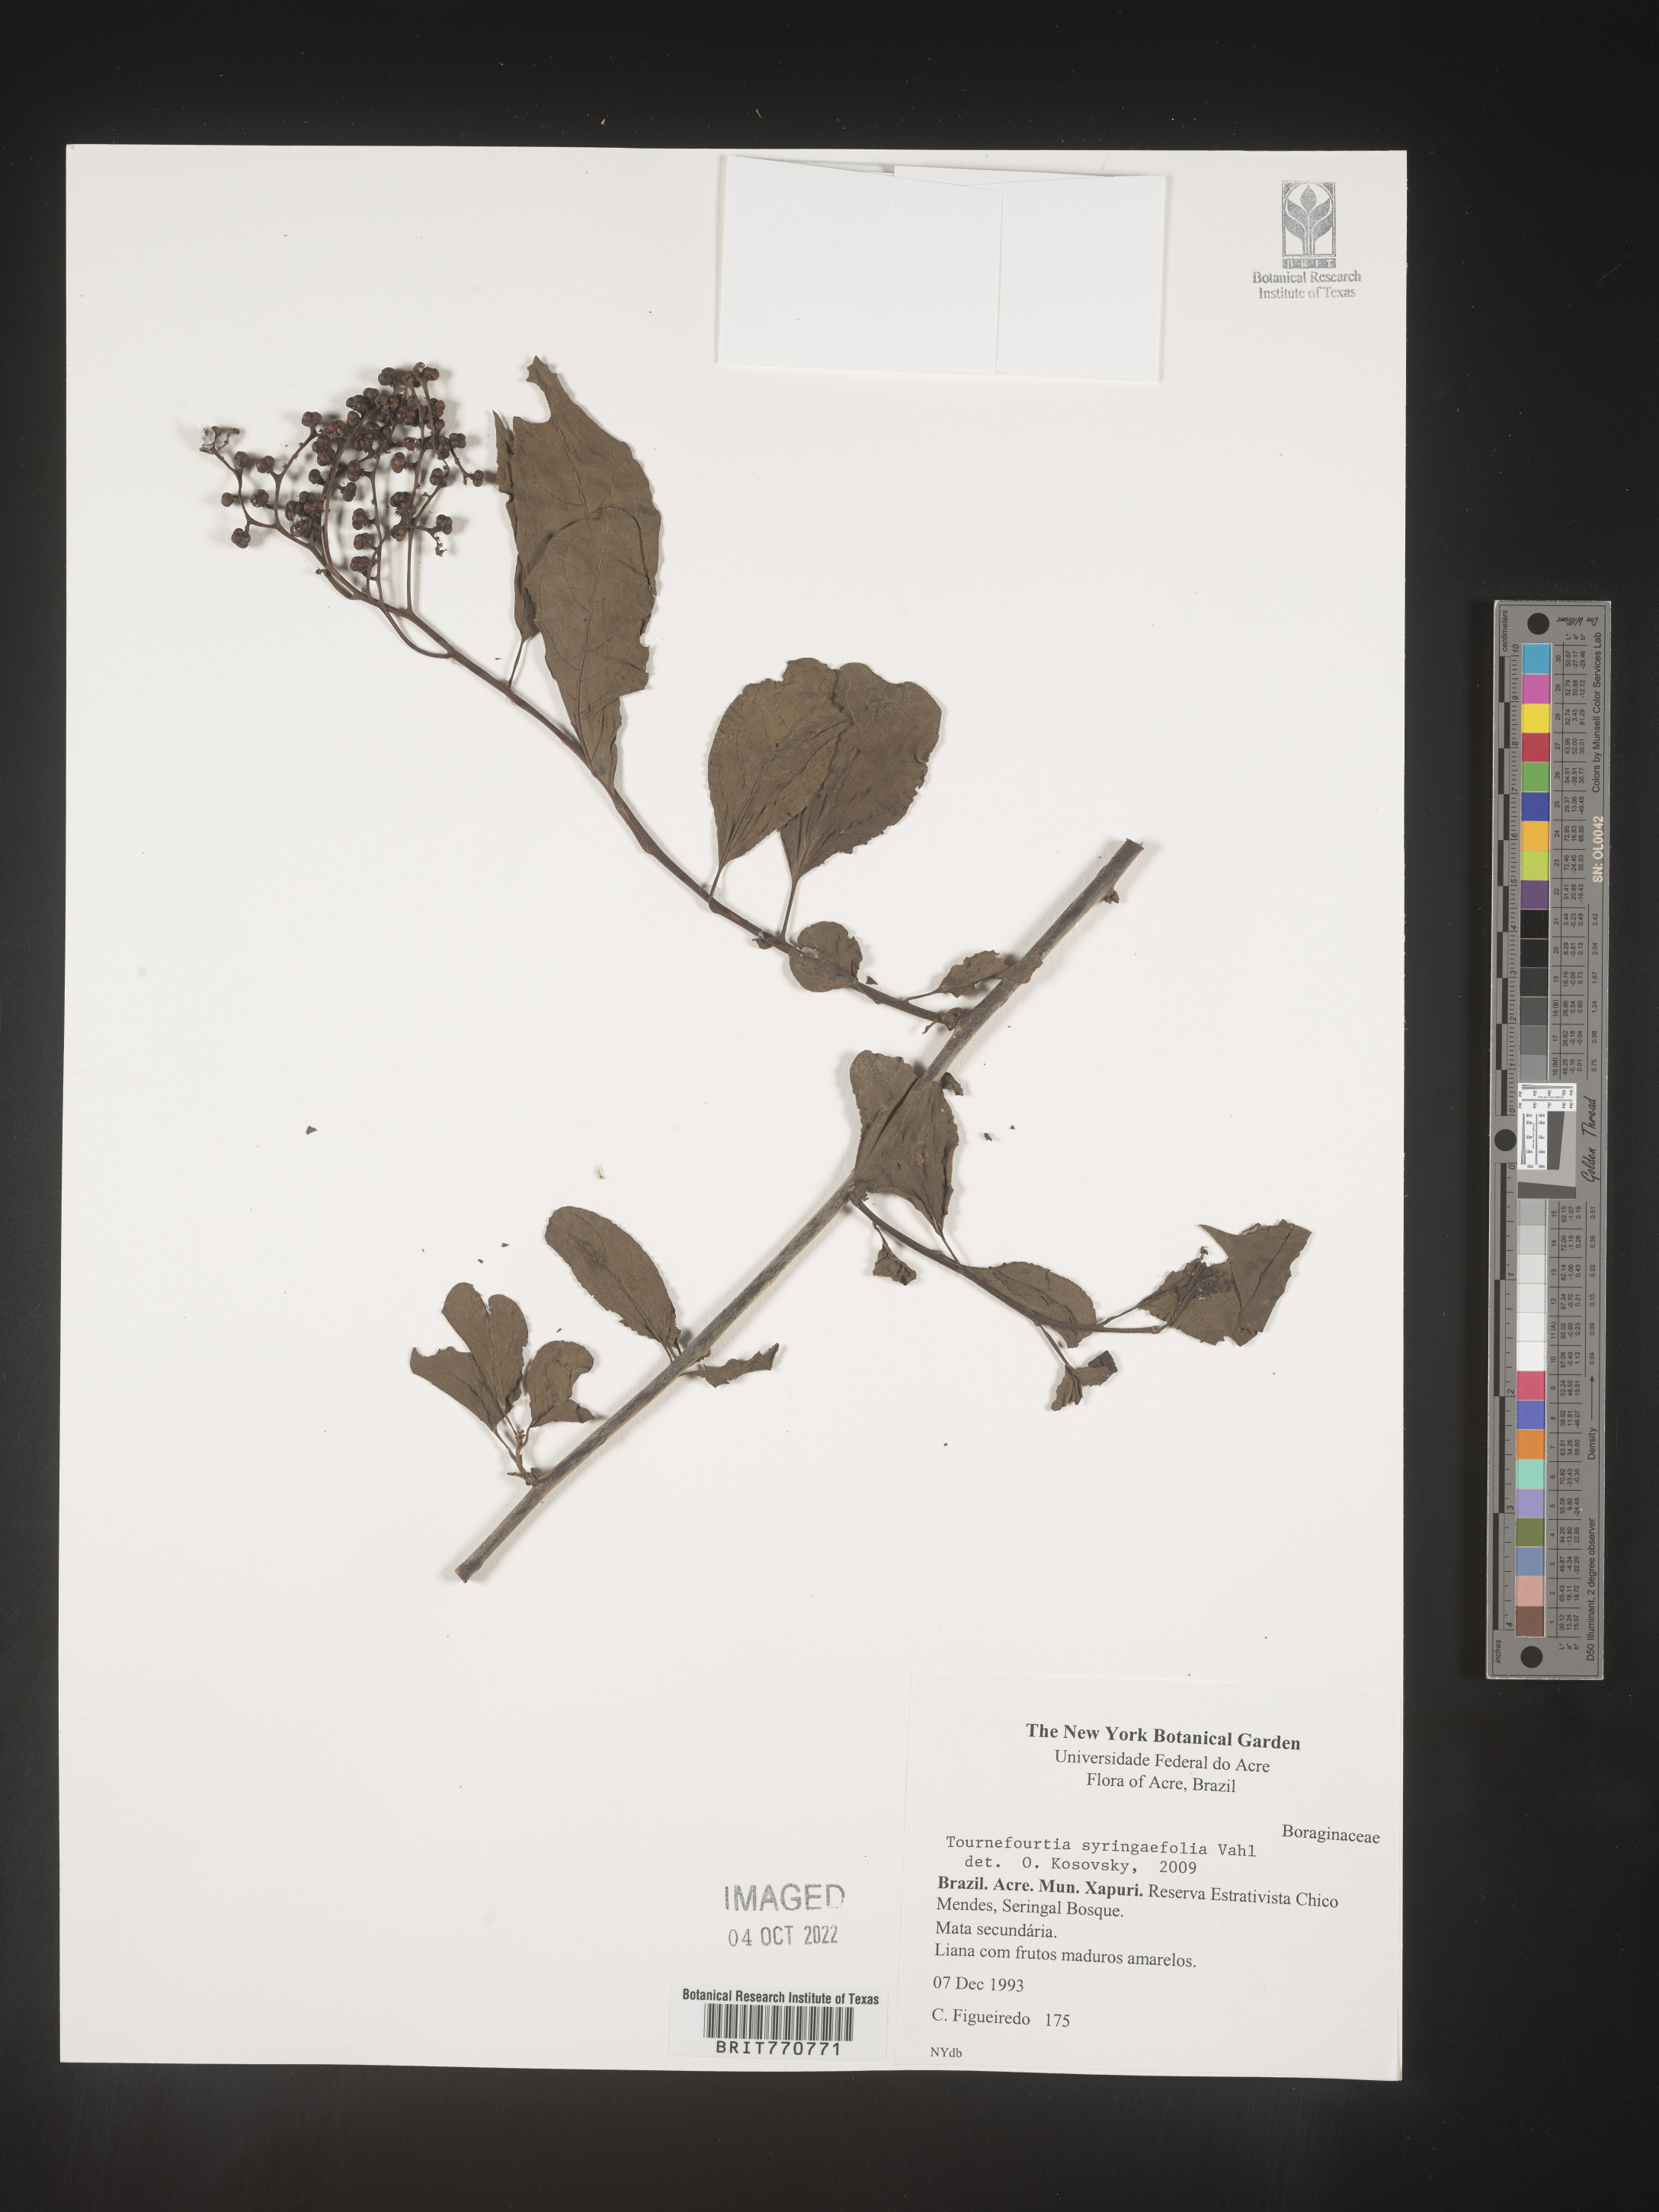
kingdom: Plantae
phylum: Tracheophyta
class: Magnoliopsida
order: Boraginales
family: Heliotropiaceae
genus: Tournefortia
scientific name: Tournefortia
